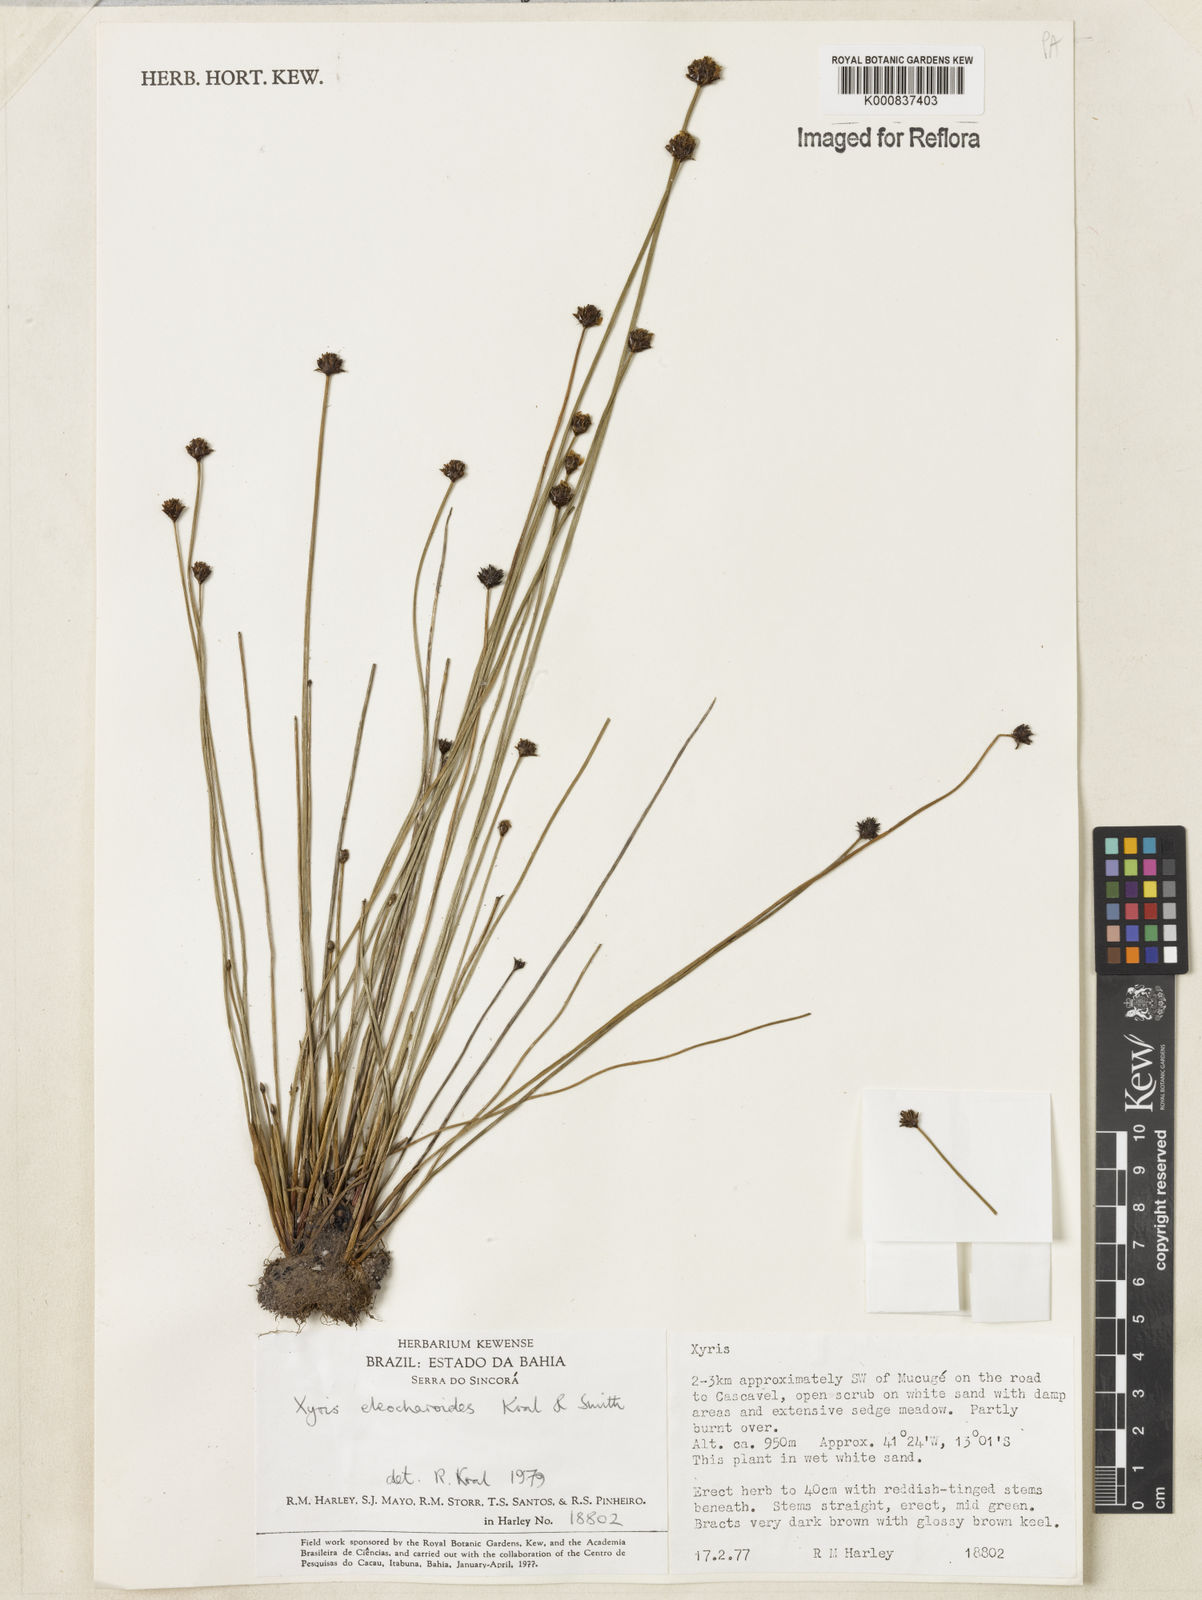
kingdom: Plantae
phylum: Tracheophyta
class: Liliopsida
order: Poales
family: Xyridaceae
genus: Xyris
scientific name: Xyris eleocharoides
